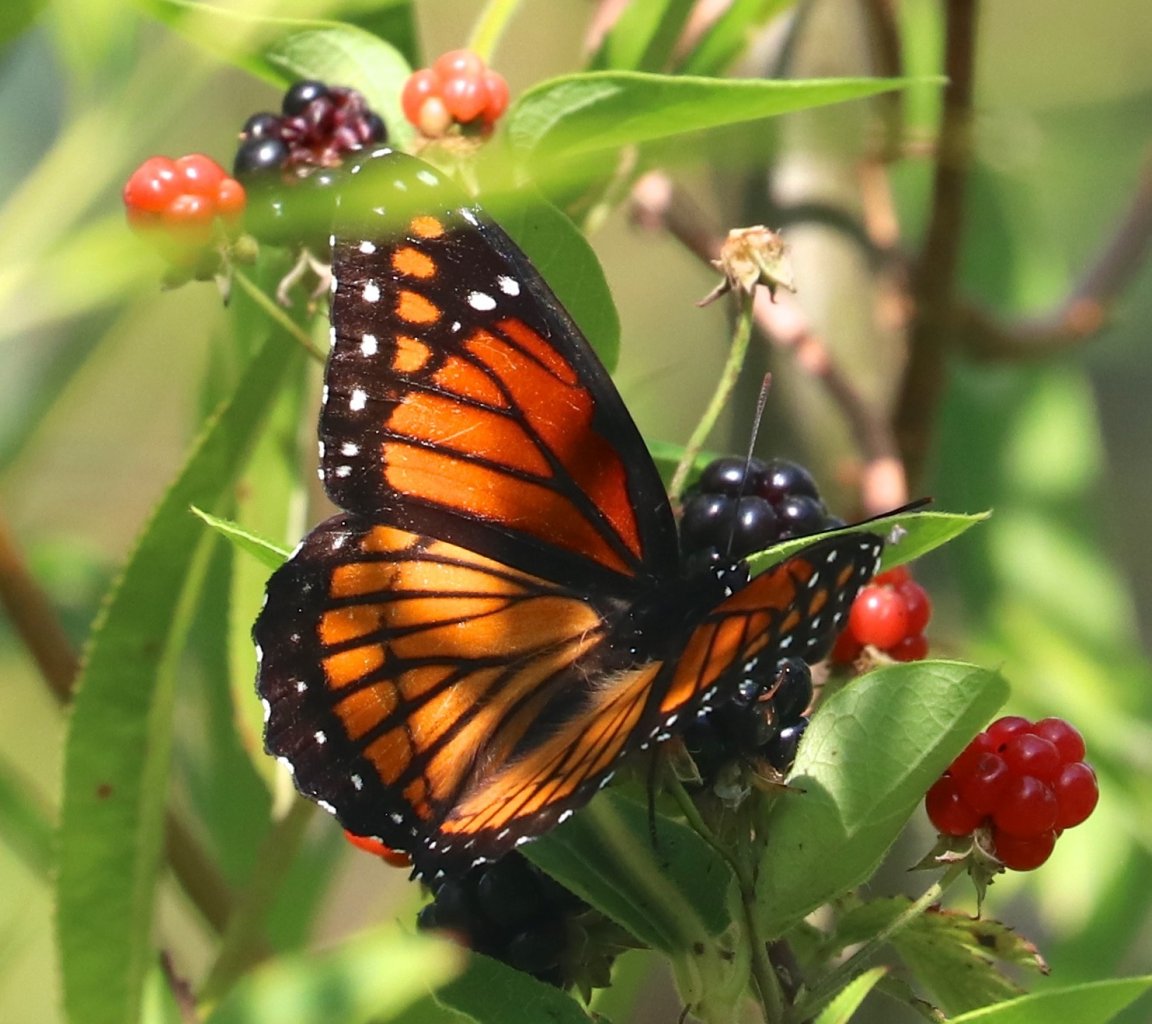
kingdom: Animalia
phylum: Arthropoda
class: Insecta
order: Lepidoptera
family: Nymphalidae
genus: Limenitis
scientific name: Limenitis archippus
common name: Viceroy
